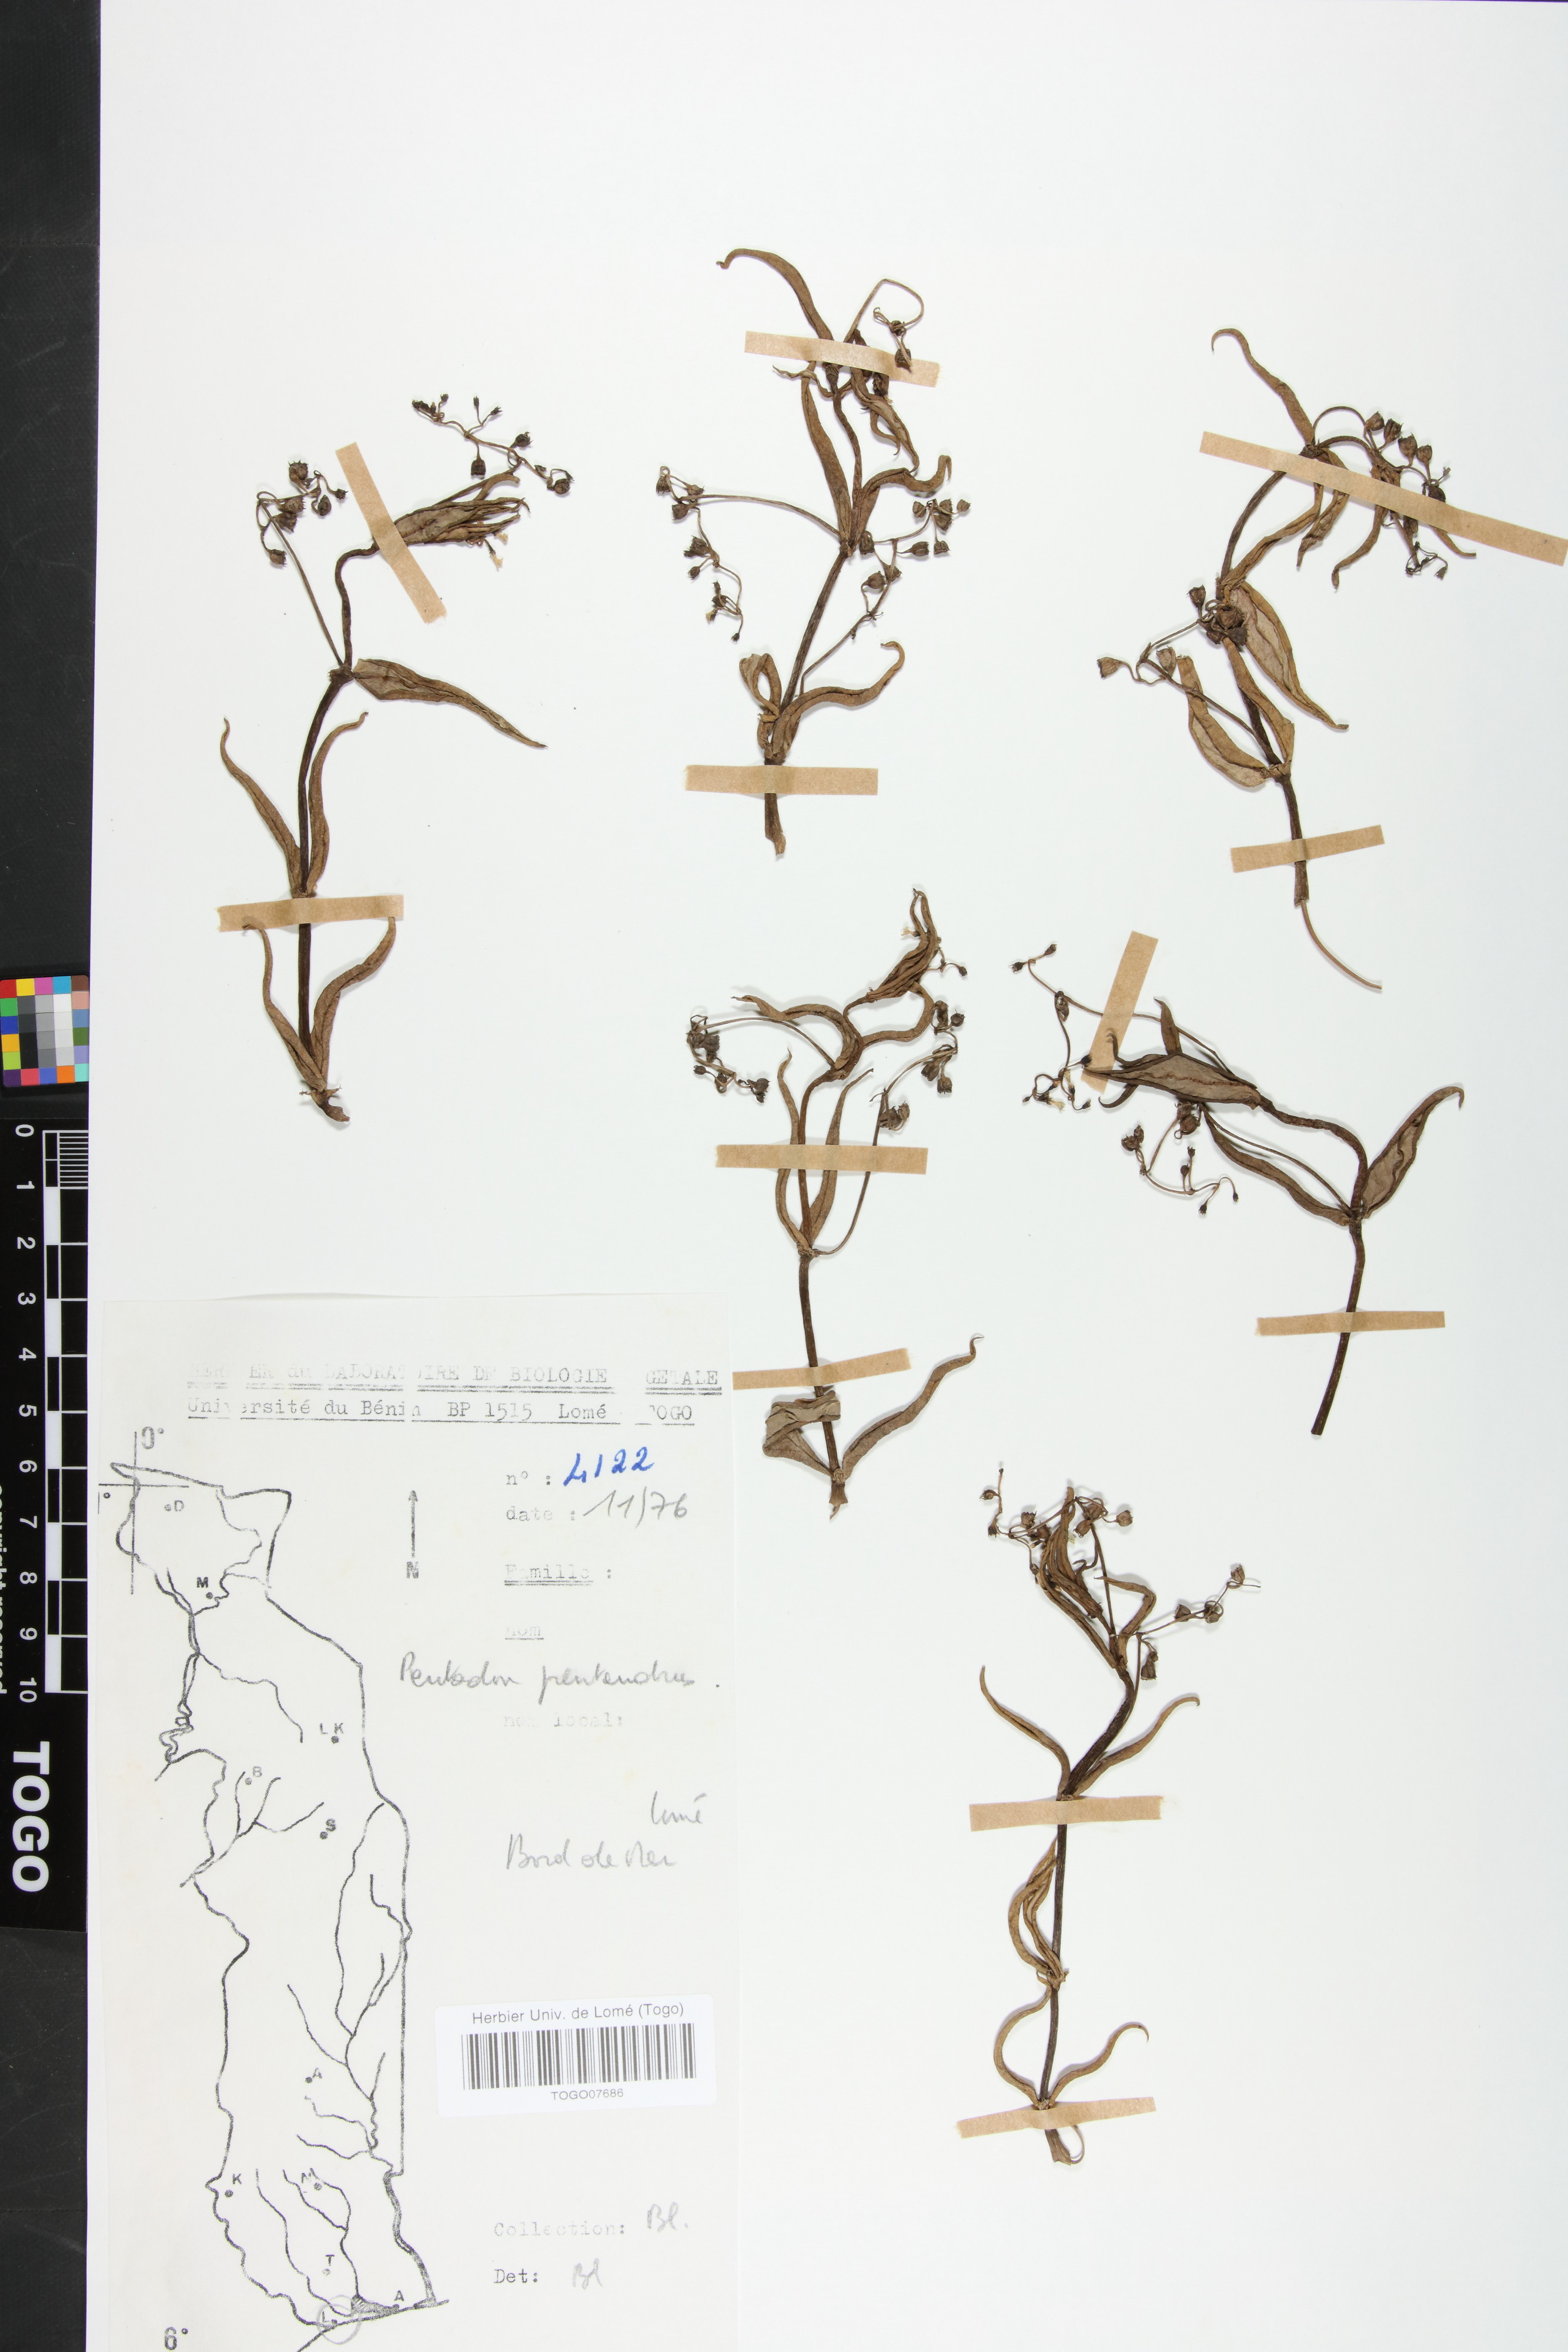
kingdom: Plantae
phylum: Tracheophyta
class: Magnoliopsida
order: Gentianales
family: Rubiaceae
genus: Pentodon
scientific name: Pentodon pentandrus
